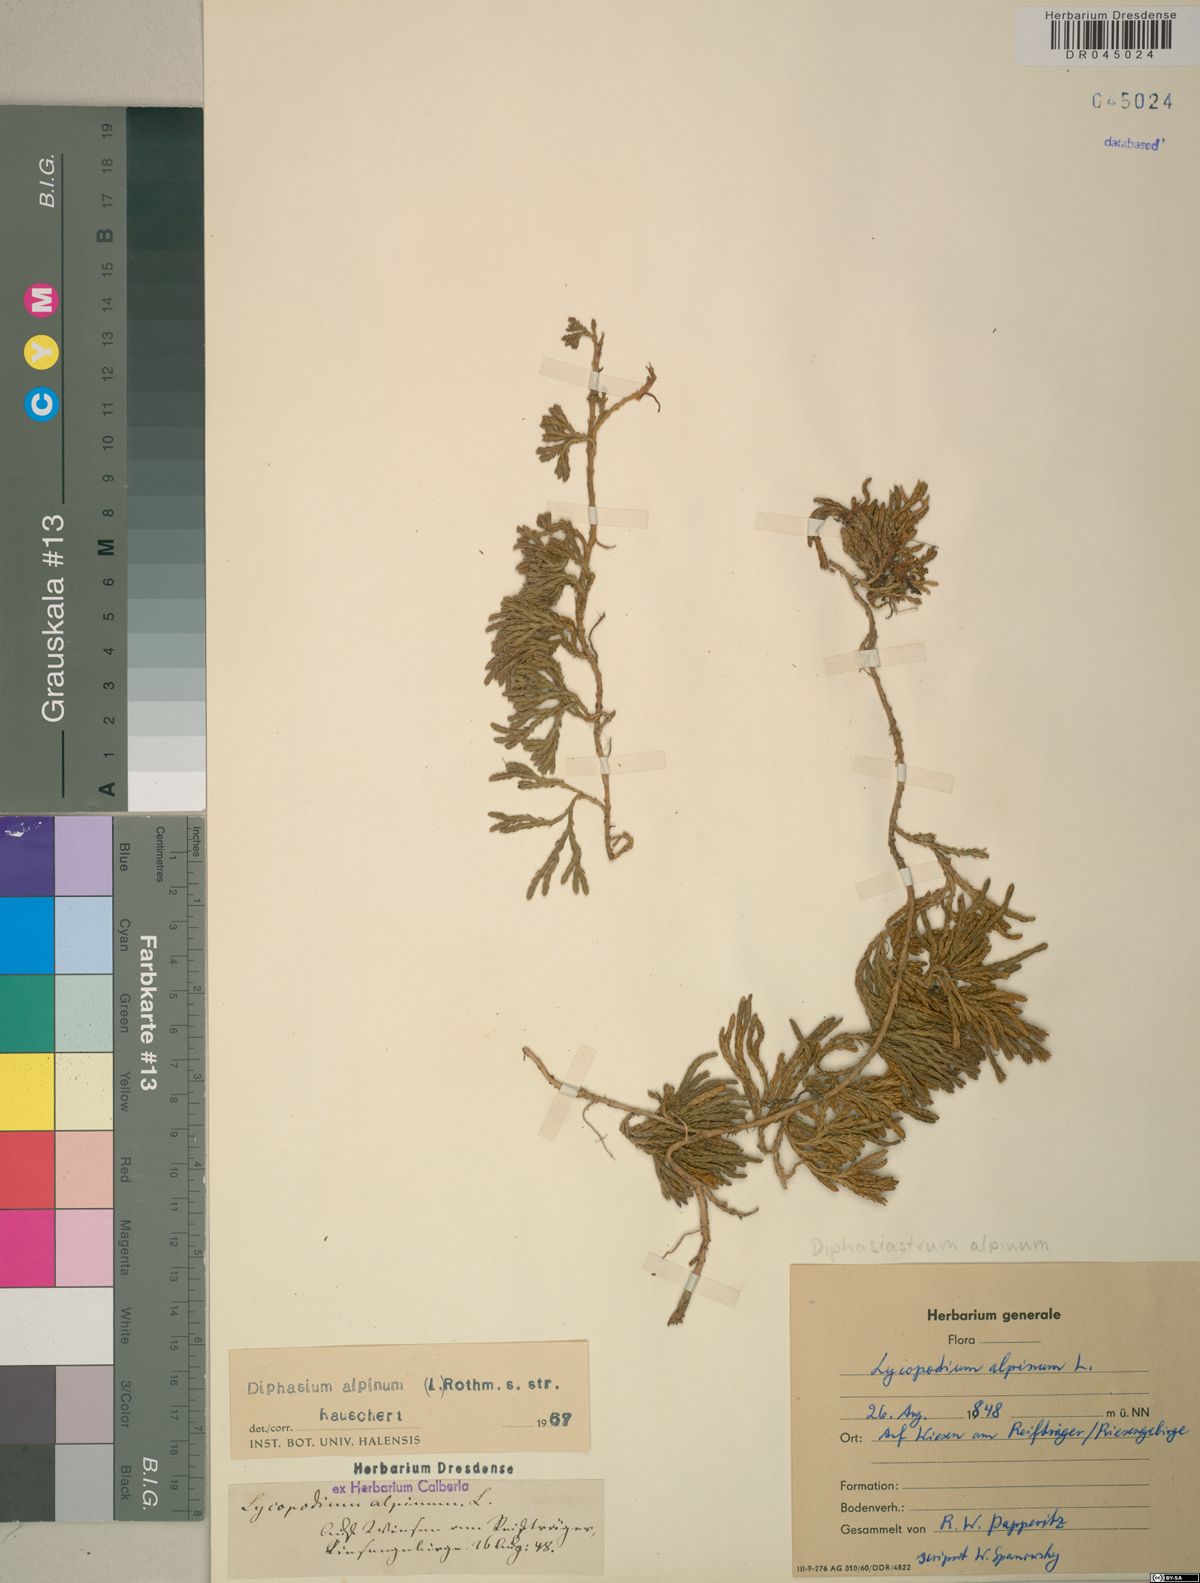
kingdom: Plantae
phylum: Tracheophyta
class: Lycopodiopsida
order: Lycopodiales
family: Lycopodiaceae
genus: Diphasiastrum
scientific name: Diphasiastrum alpinum
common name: Alpine clubmoss
